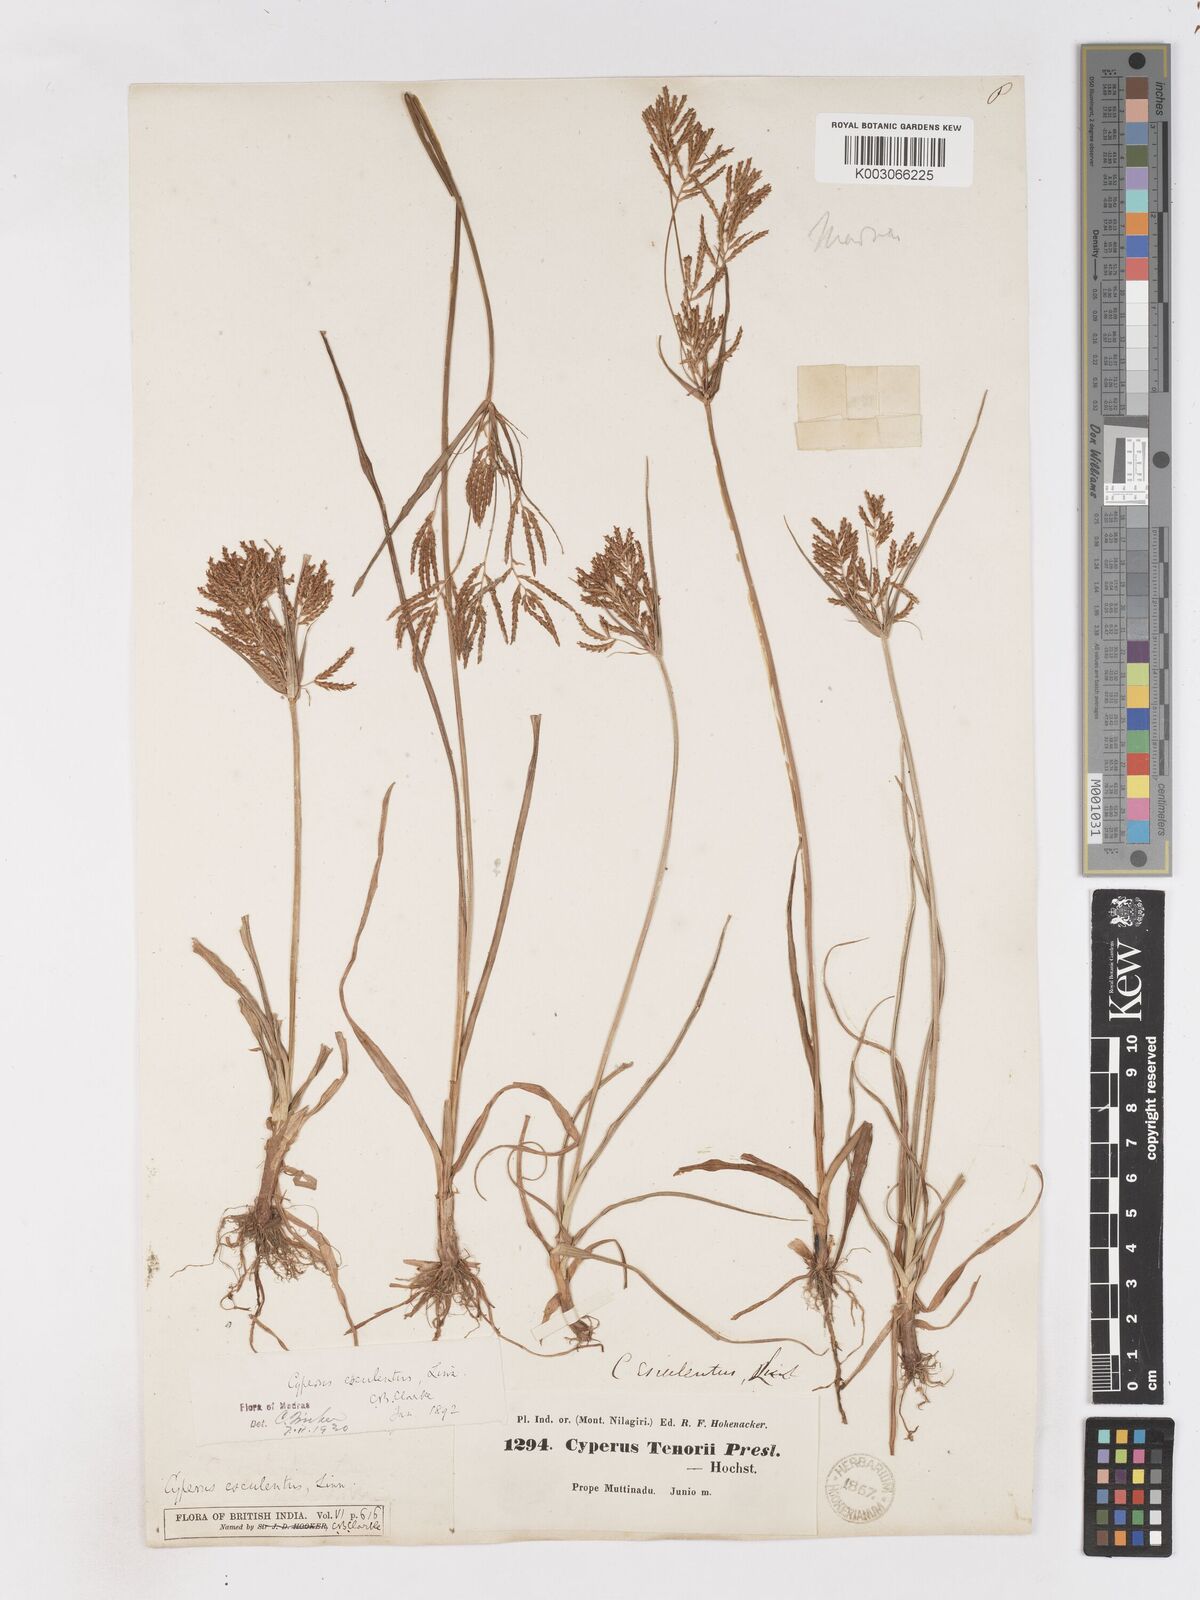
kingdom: Plantae
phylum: Tracheophyta
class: Liliopsida
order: Poales
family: Cyperaceae
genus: Cyperus
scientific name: Cyperus esculentus
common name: Yellow nutsedge
